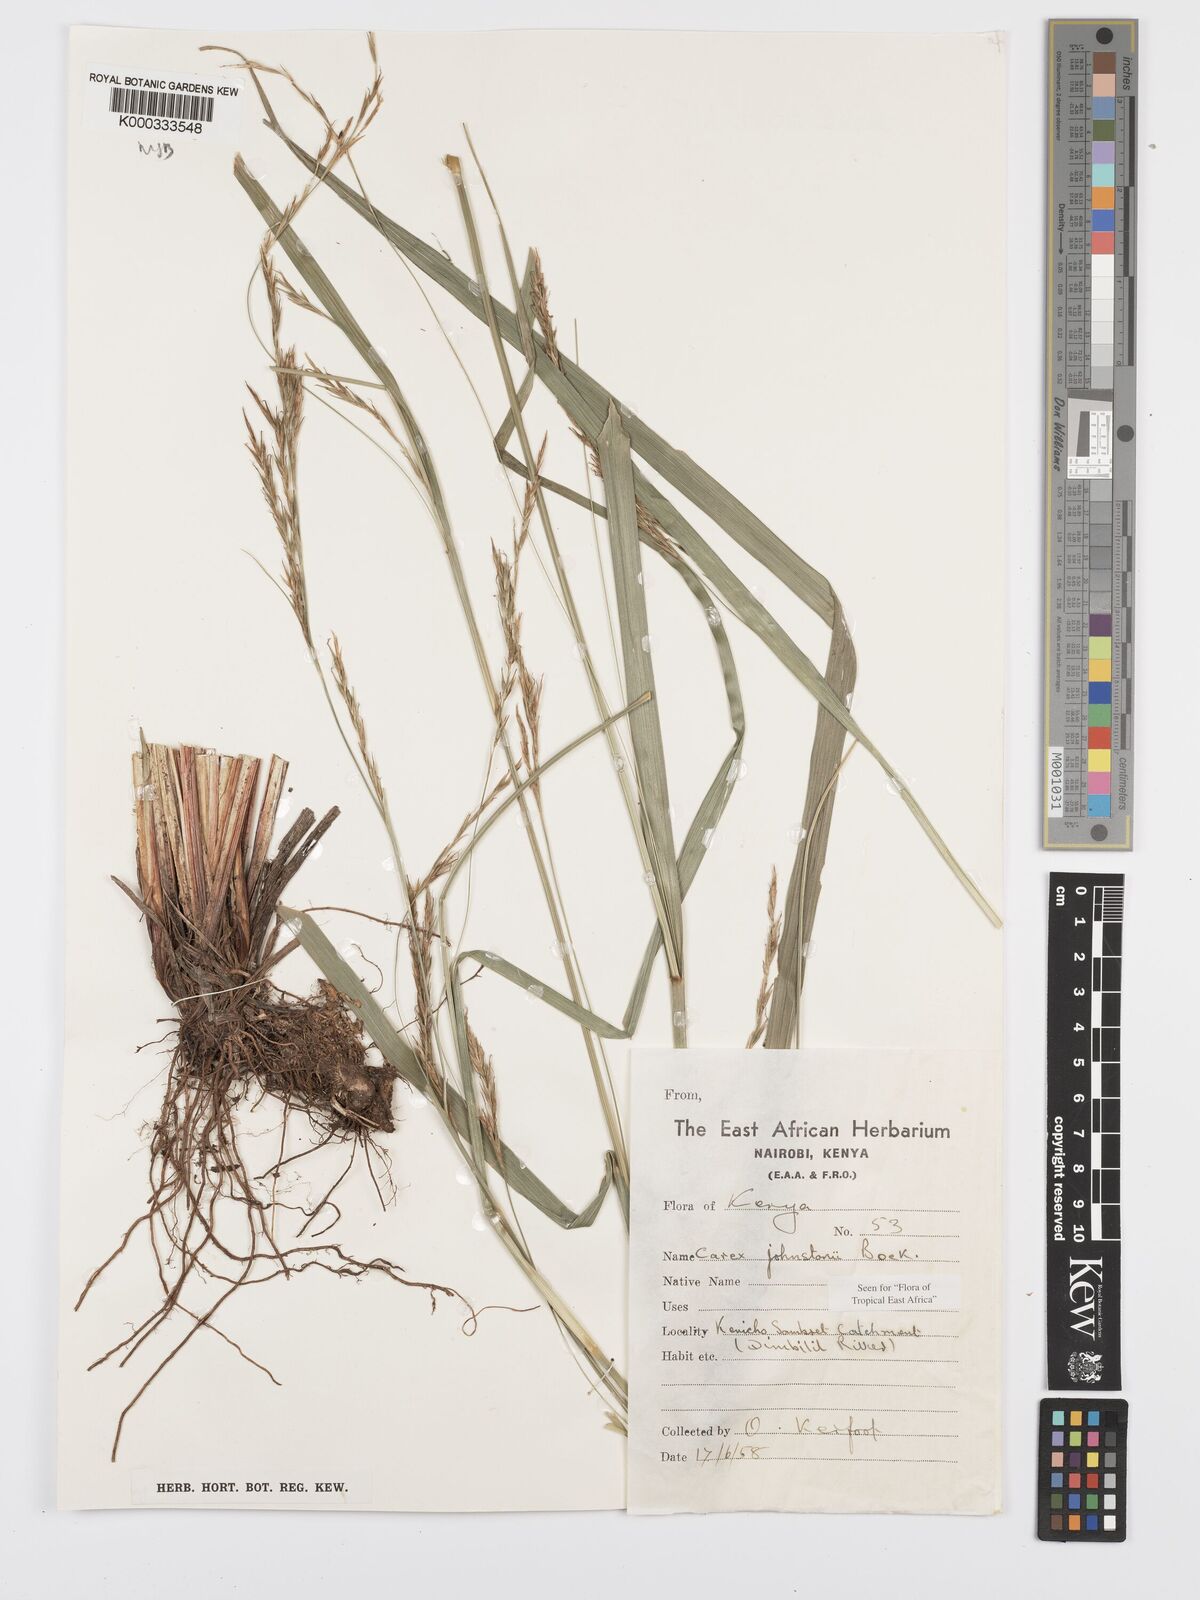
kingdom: Plantae
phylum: Tracheophyta
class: Liliopsida
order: Poales
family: Cyperaceae
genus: Carex
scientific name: Carex johnstonii
